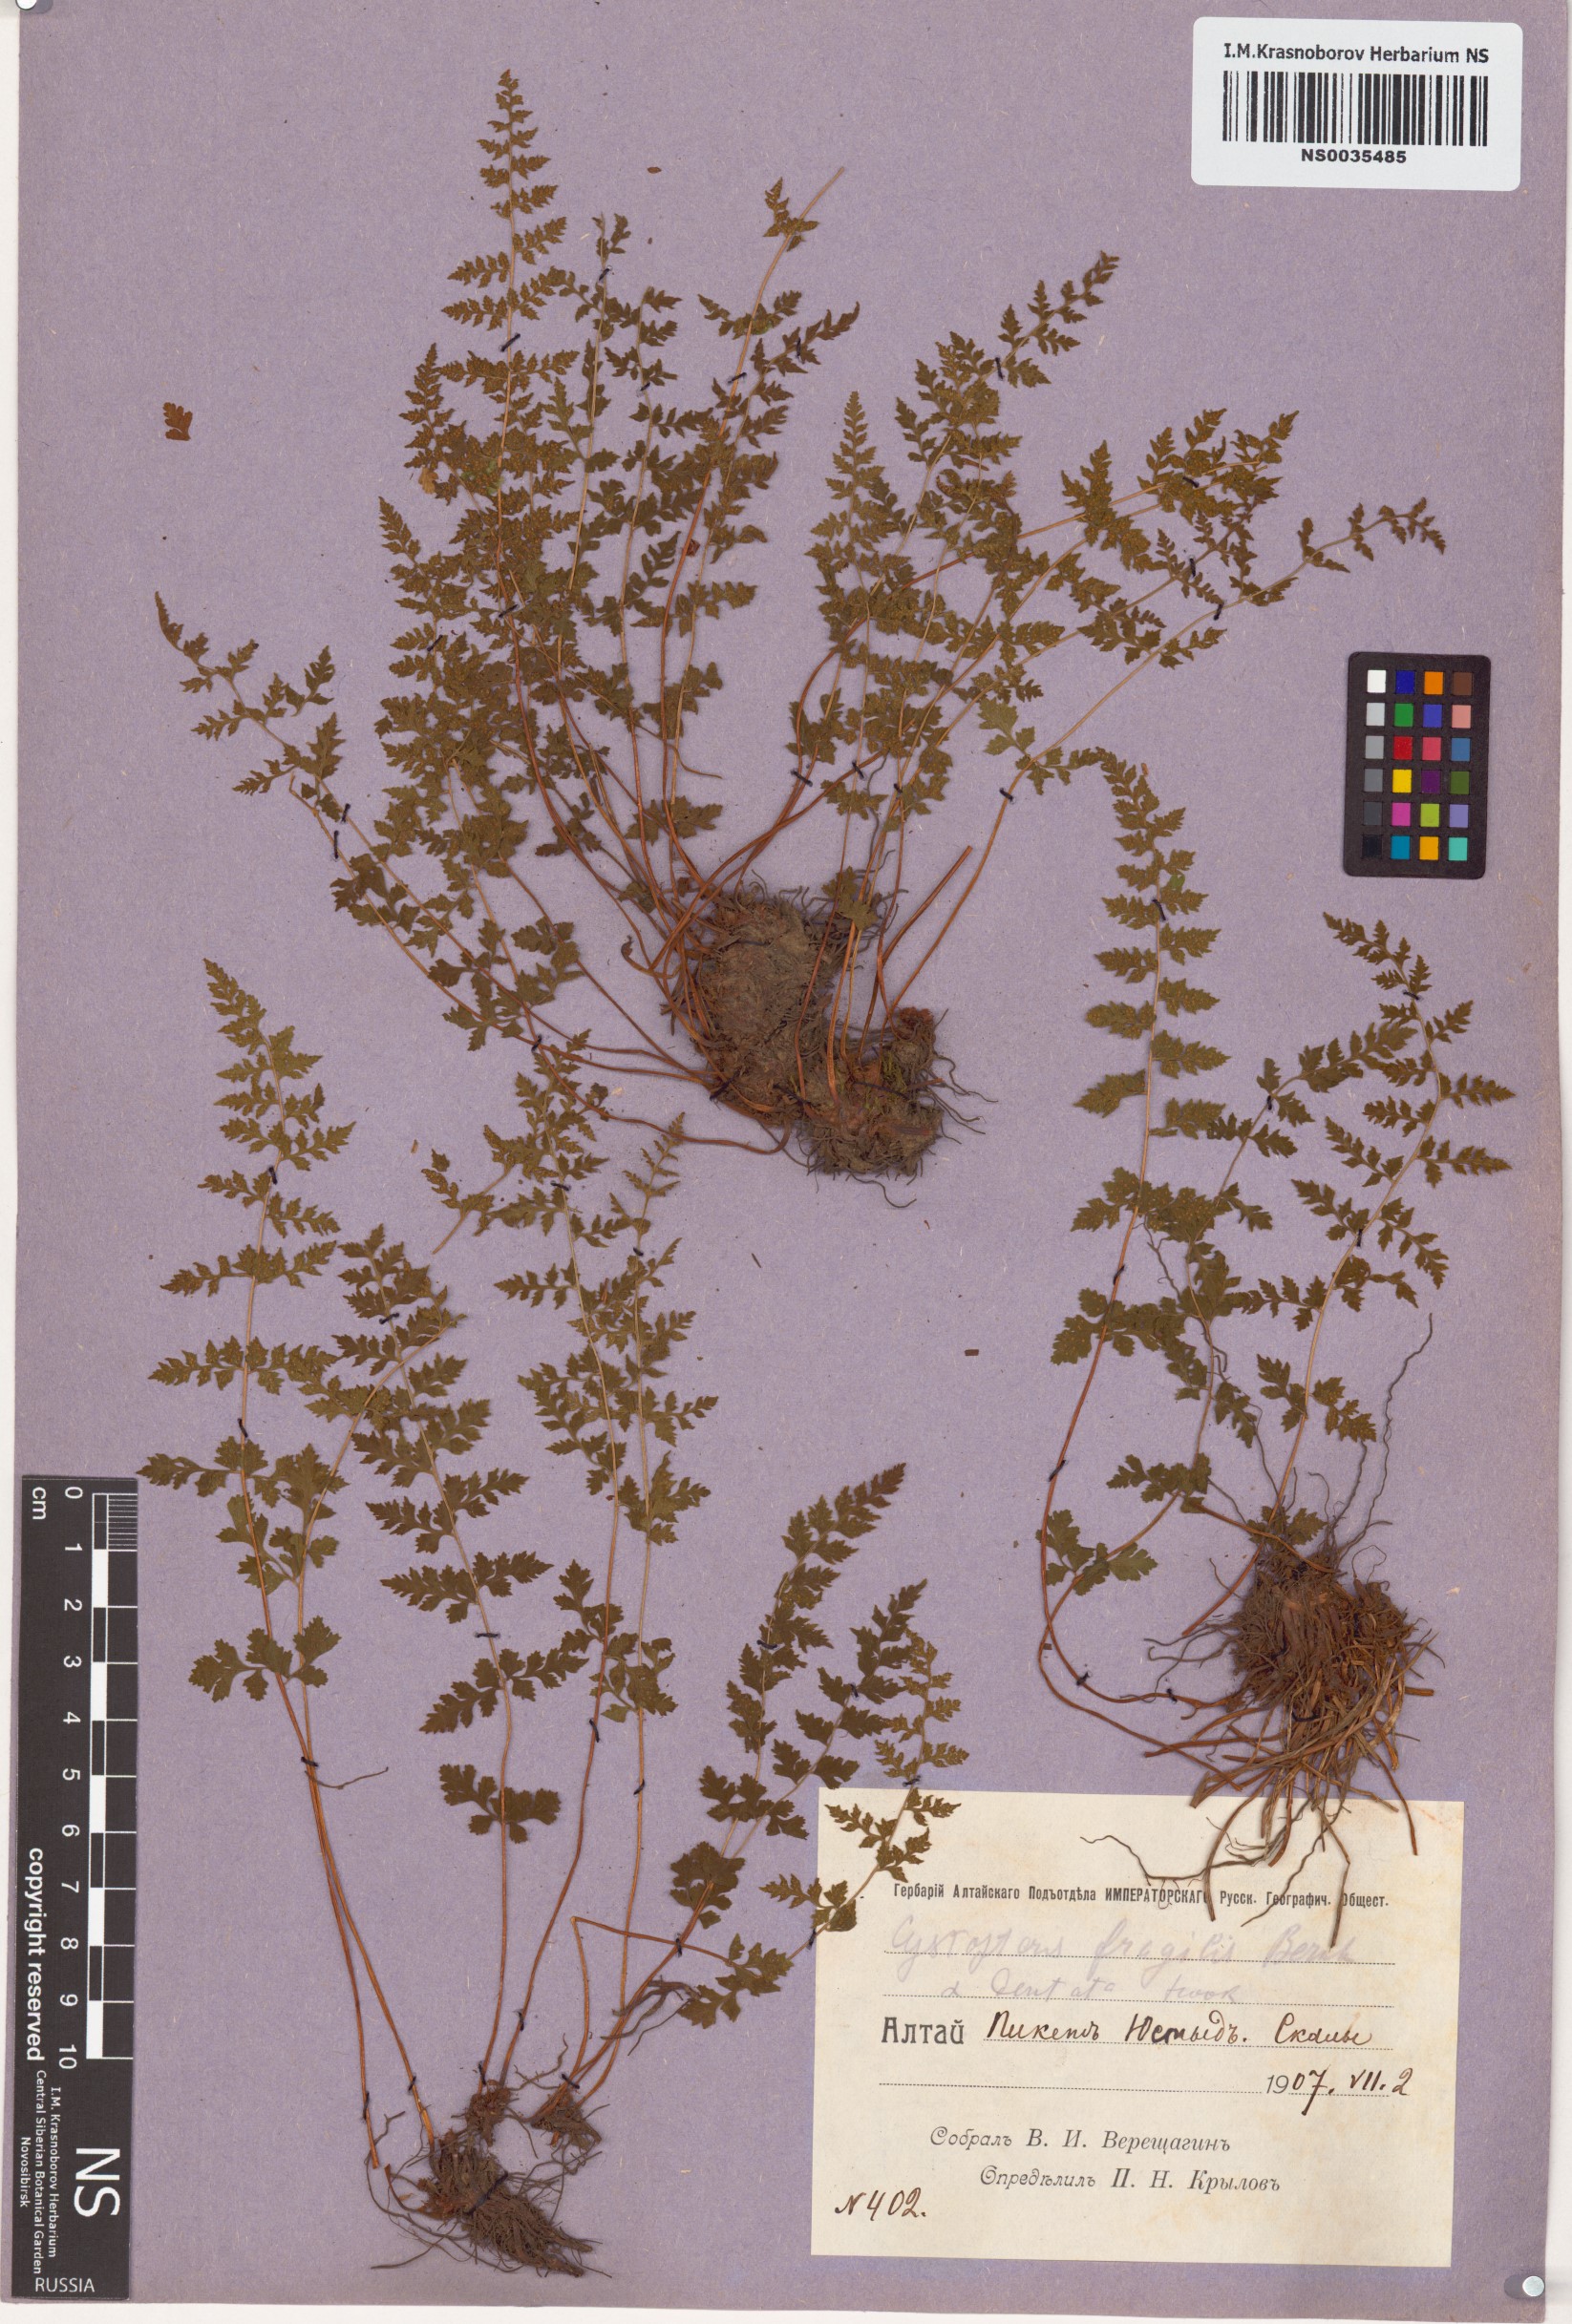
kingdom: Plantae
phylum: Tracheophyta
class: Polypodiopsida
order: Polypodiales
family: Cystopteridaceae
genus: Cystopteris
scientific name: Cystopteris fragilis
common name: Brittle bladder fern
